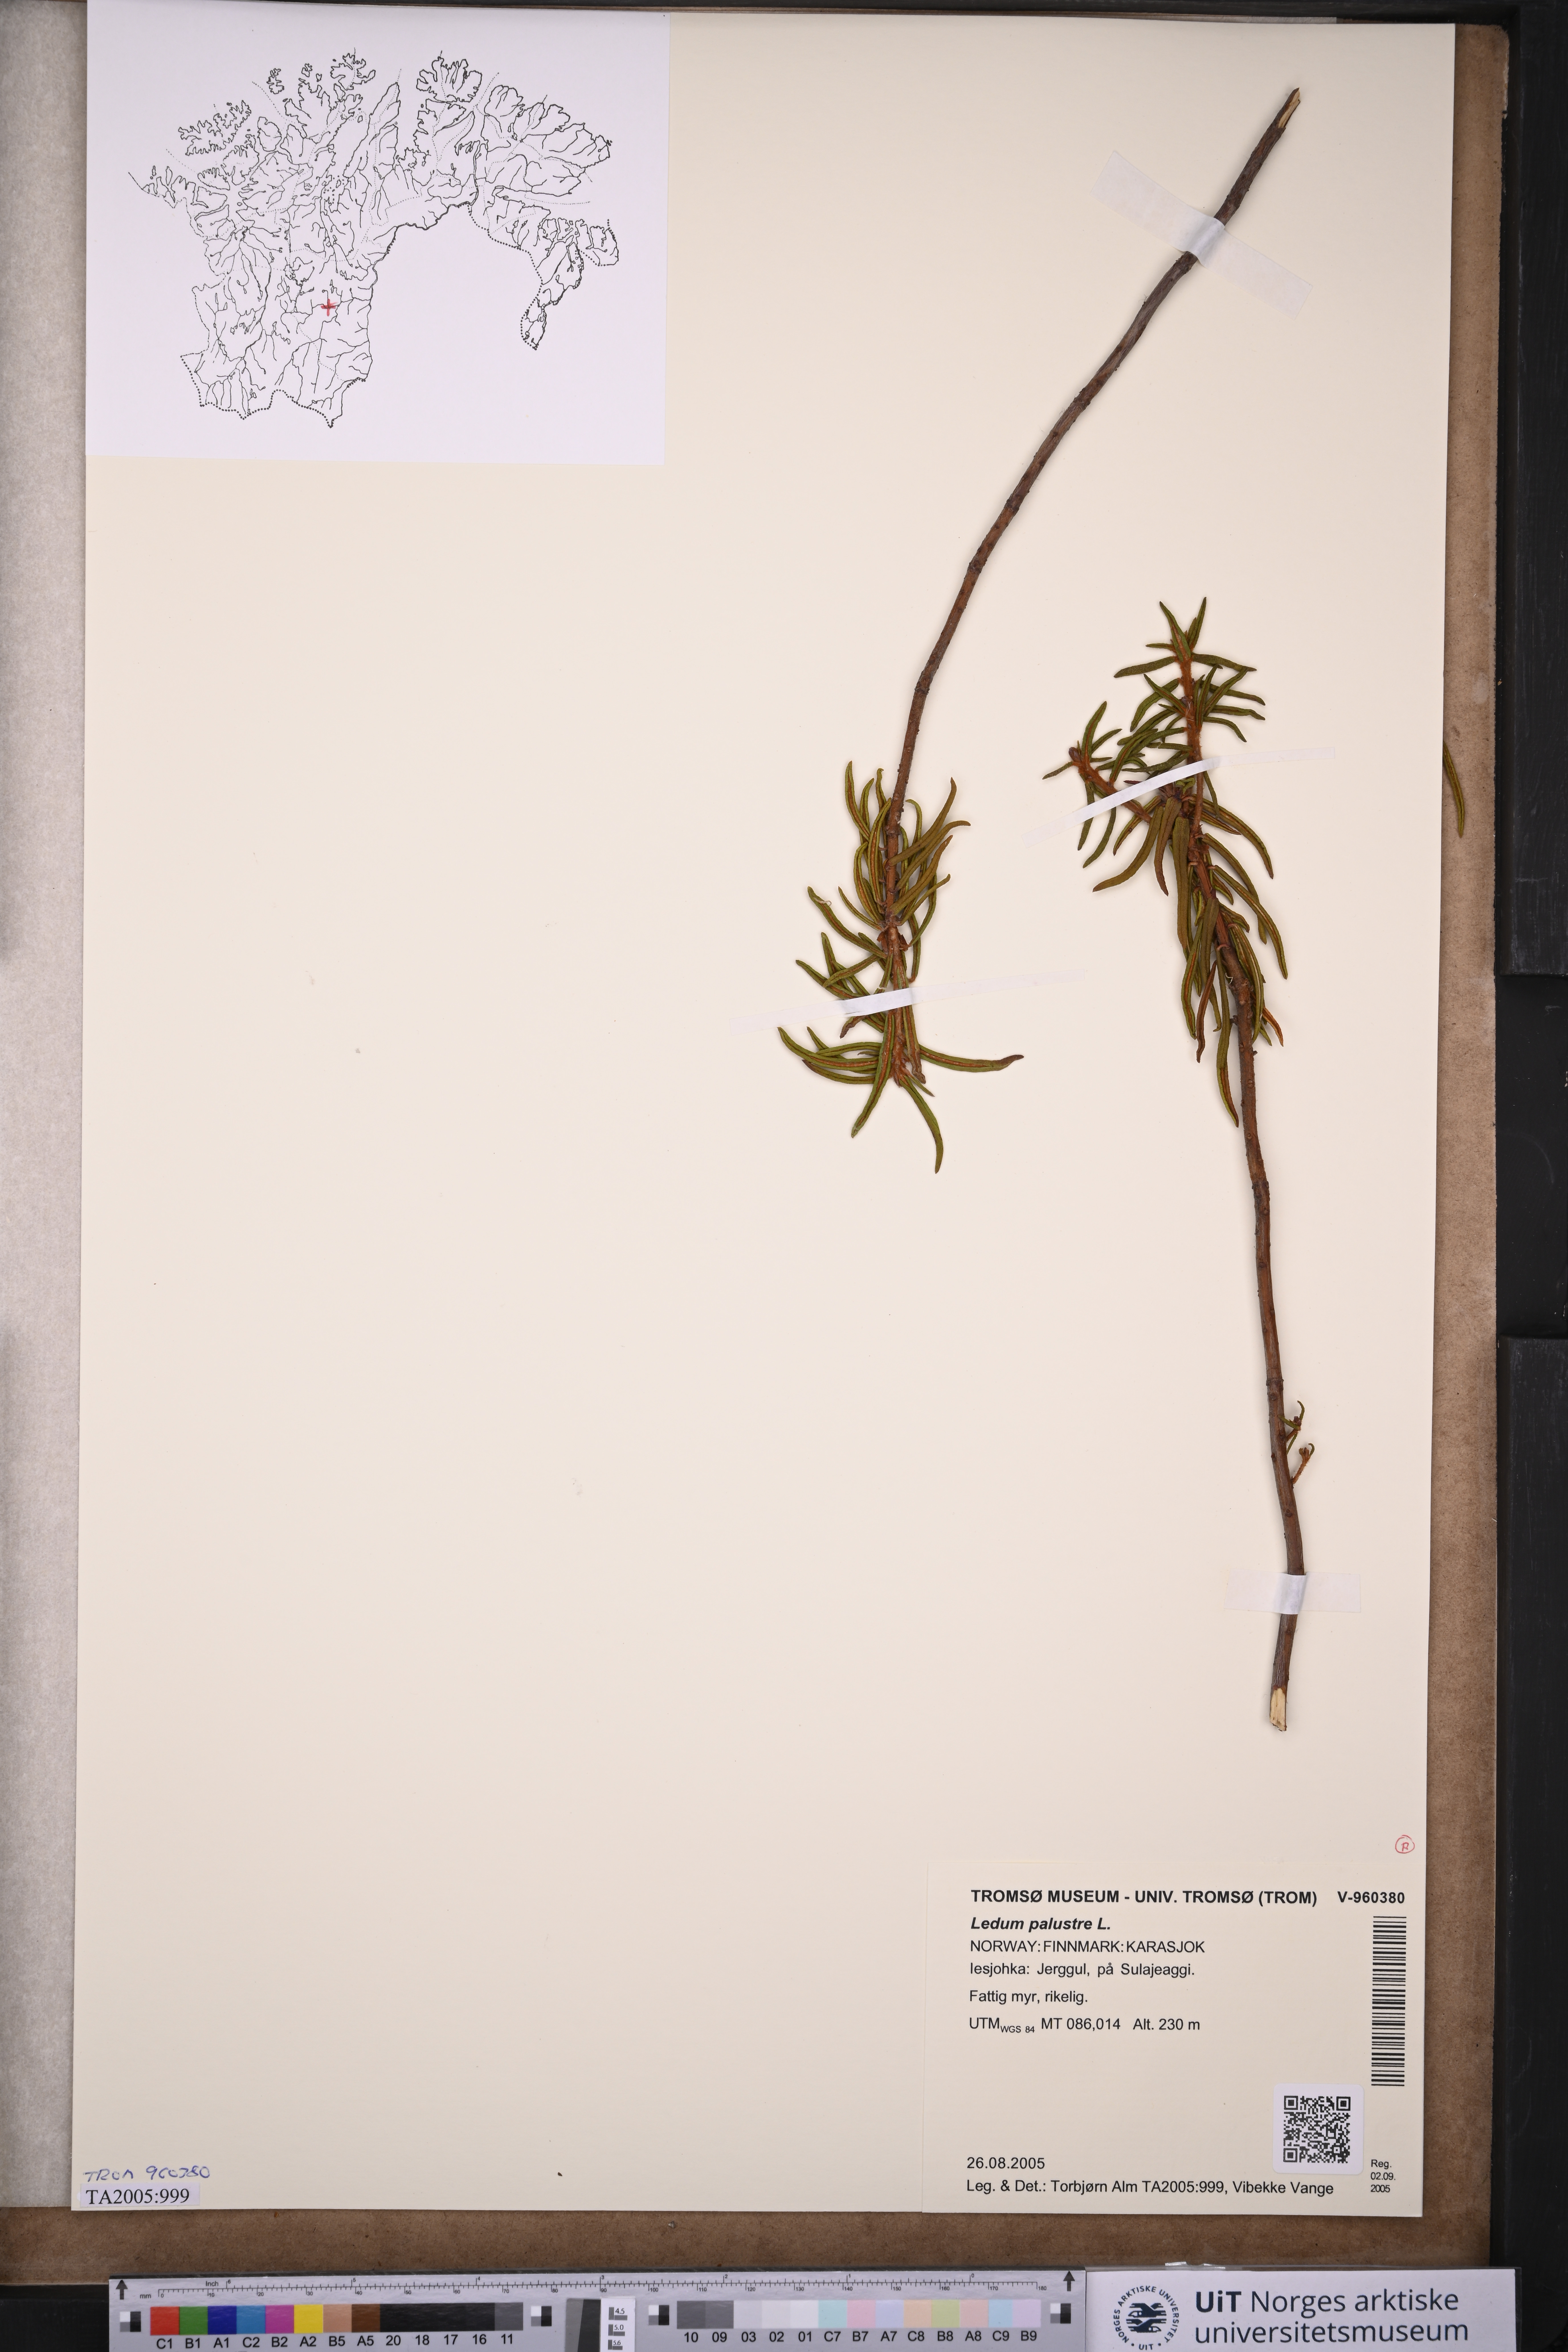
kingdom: Plantae
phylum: Tracheophyta
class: Magnoliopsida
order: Ericales
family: Ericaceae
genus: Rhododendron
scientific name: Rhododendron tomentosum
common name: Marsh labrador tea
